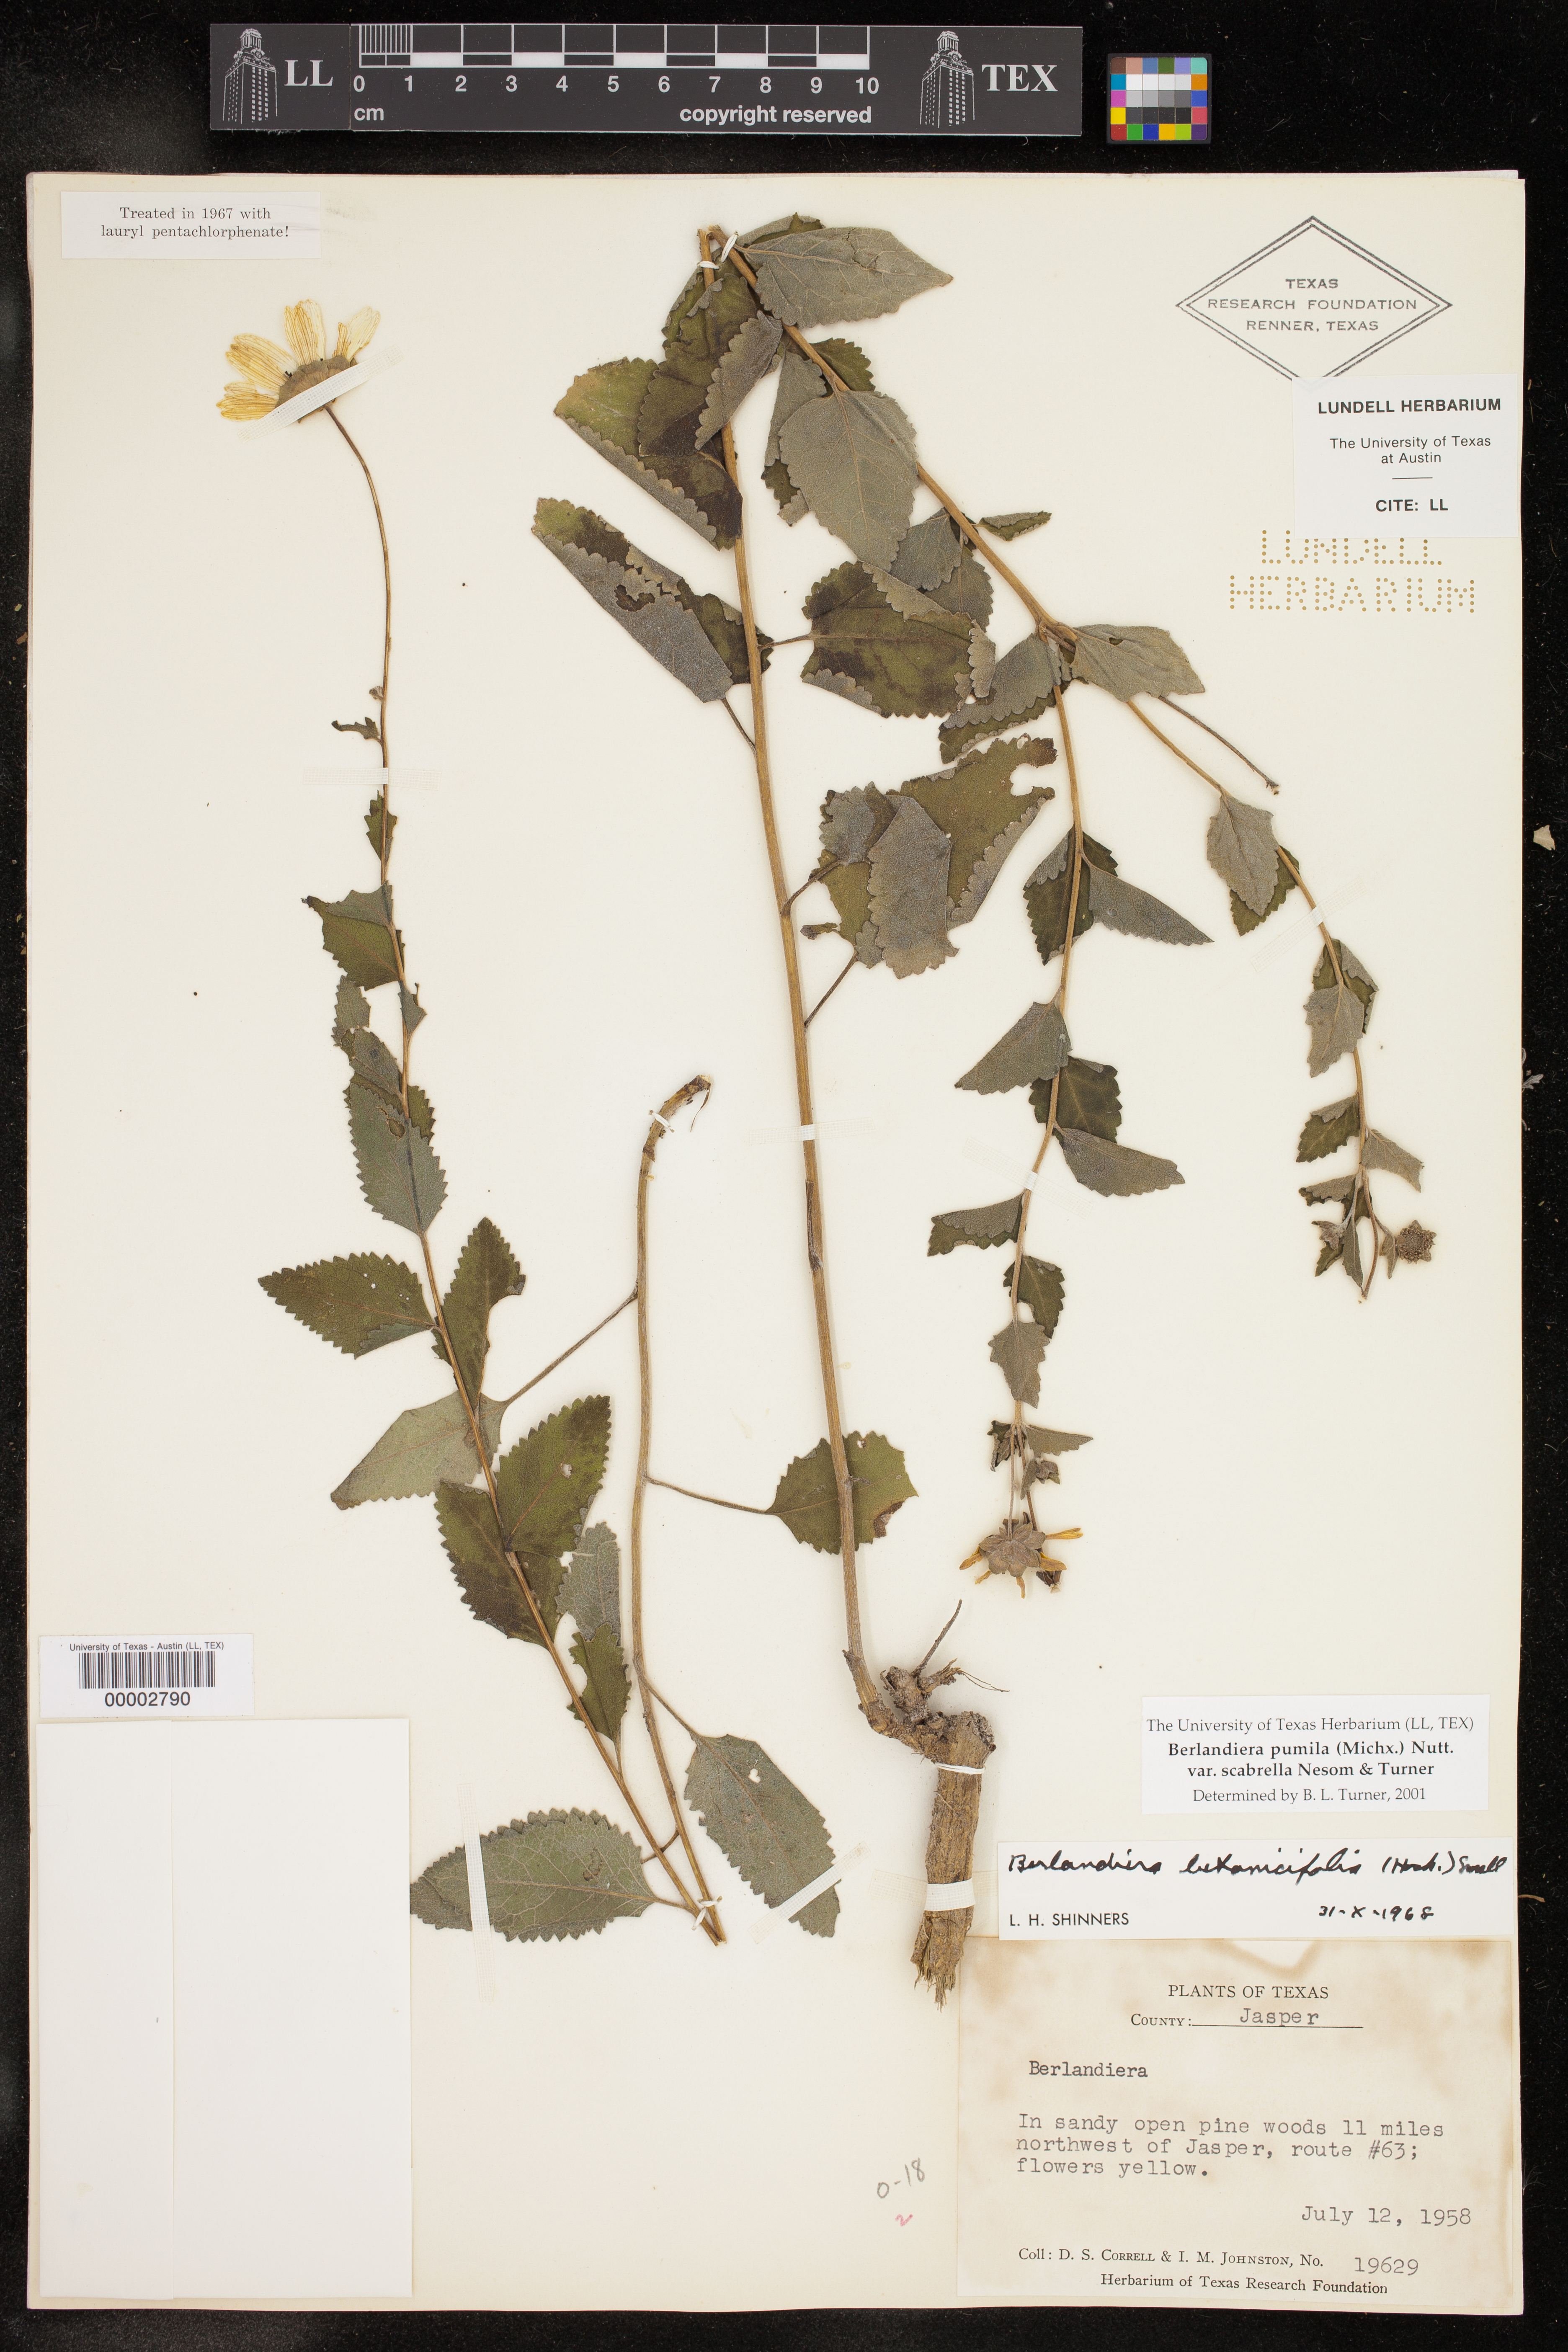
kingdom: Plantae
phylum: Tracheophyta
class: Magnoliopsida
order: Asterales
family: Asteraceae
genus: Berlandiera
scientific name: Berlandiera betonicifolia
